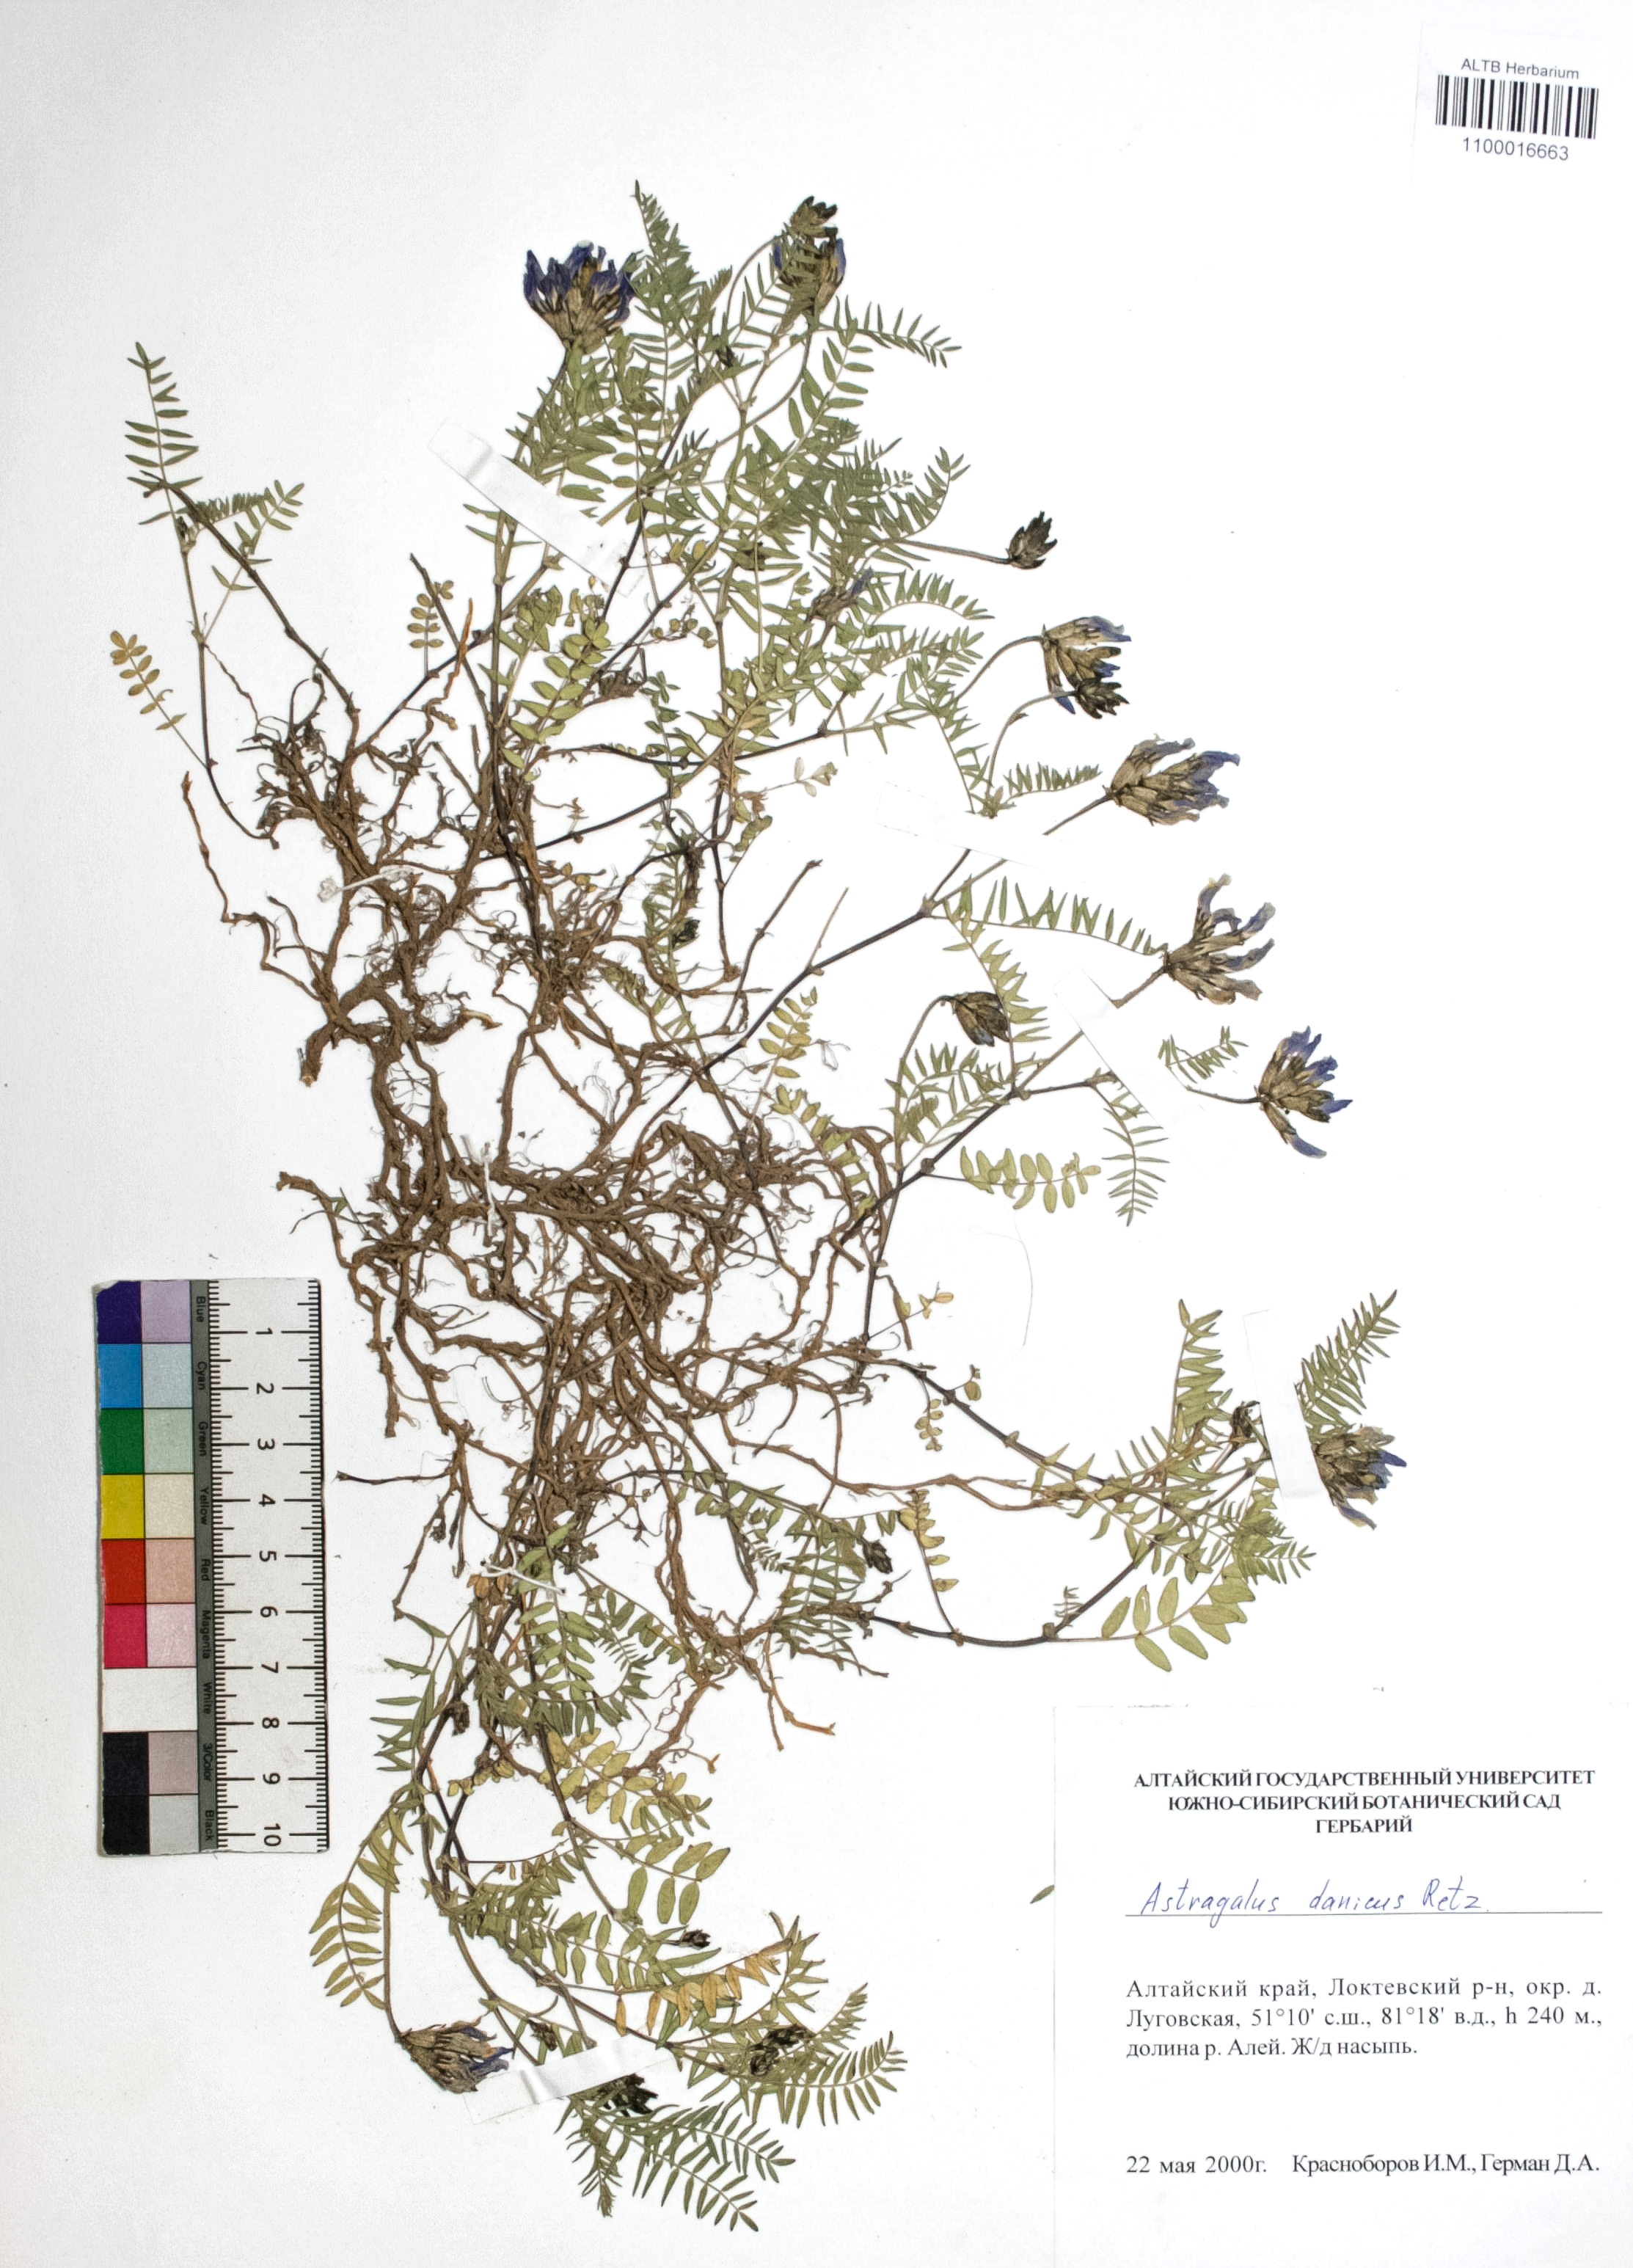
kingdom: Plantae
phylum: Tracheophyta
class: Magnoliopsida
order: Fabales
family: Fabaceae
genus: Astragalus
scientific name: Astragalus danicus
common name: Purple milk-vetch
